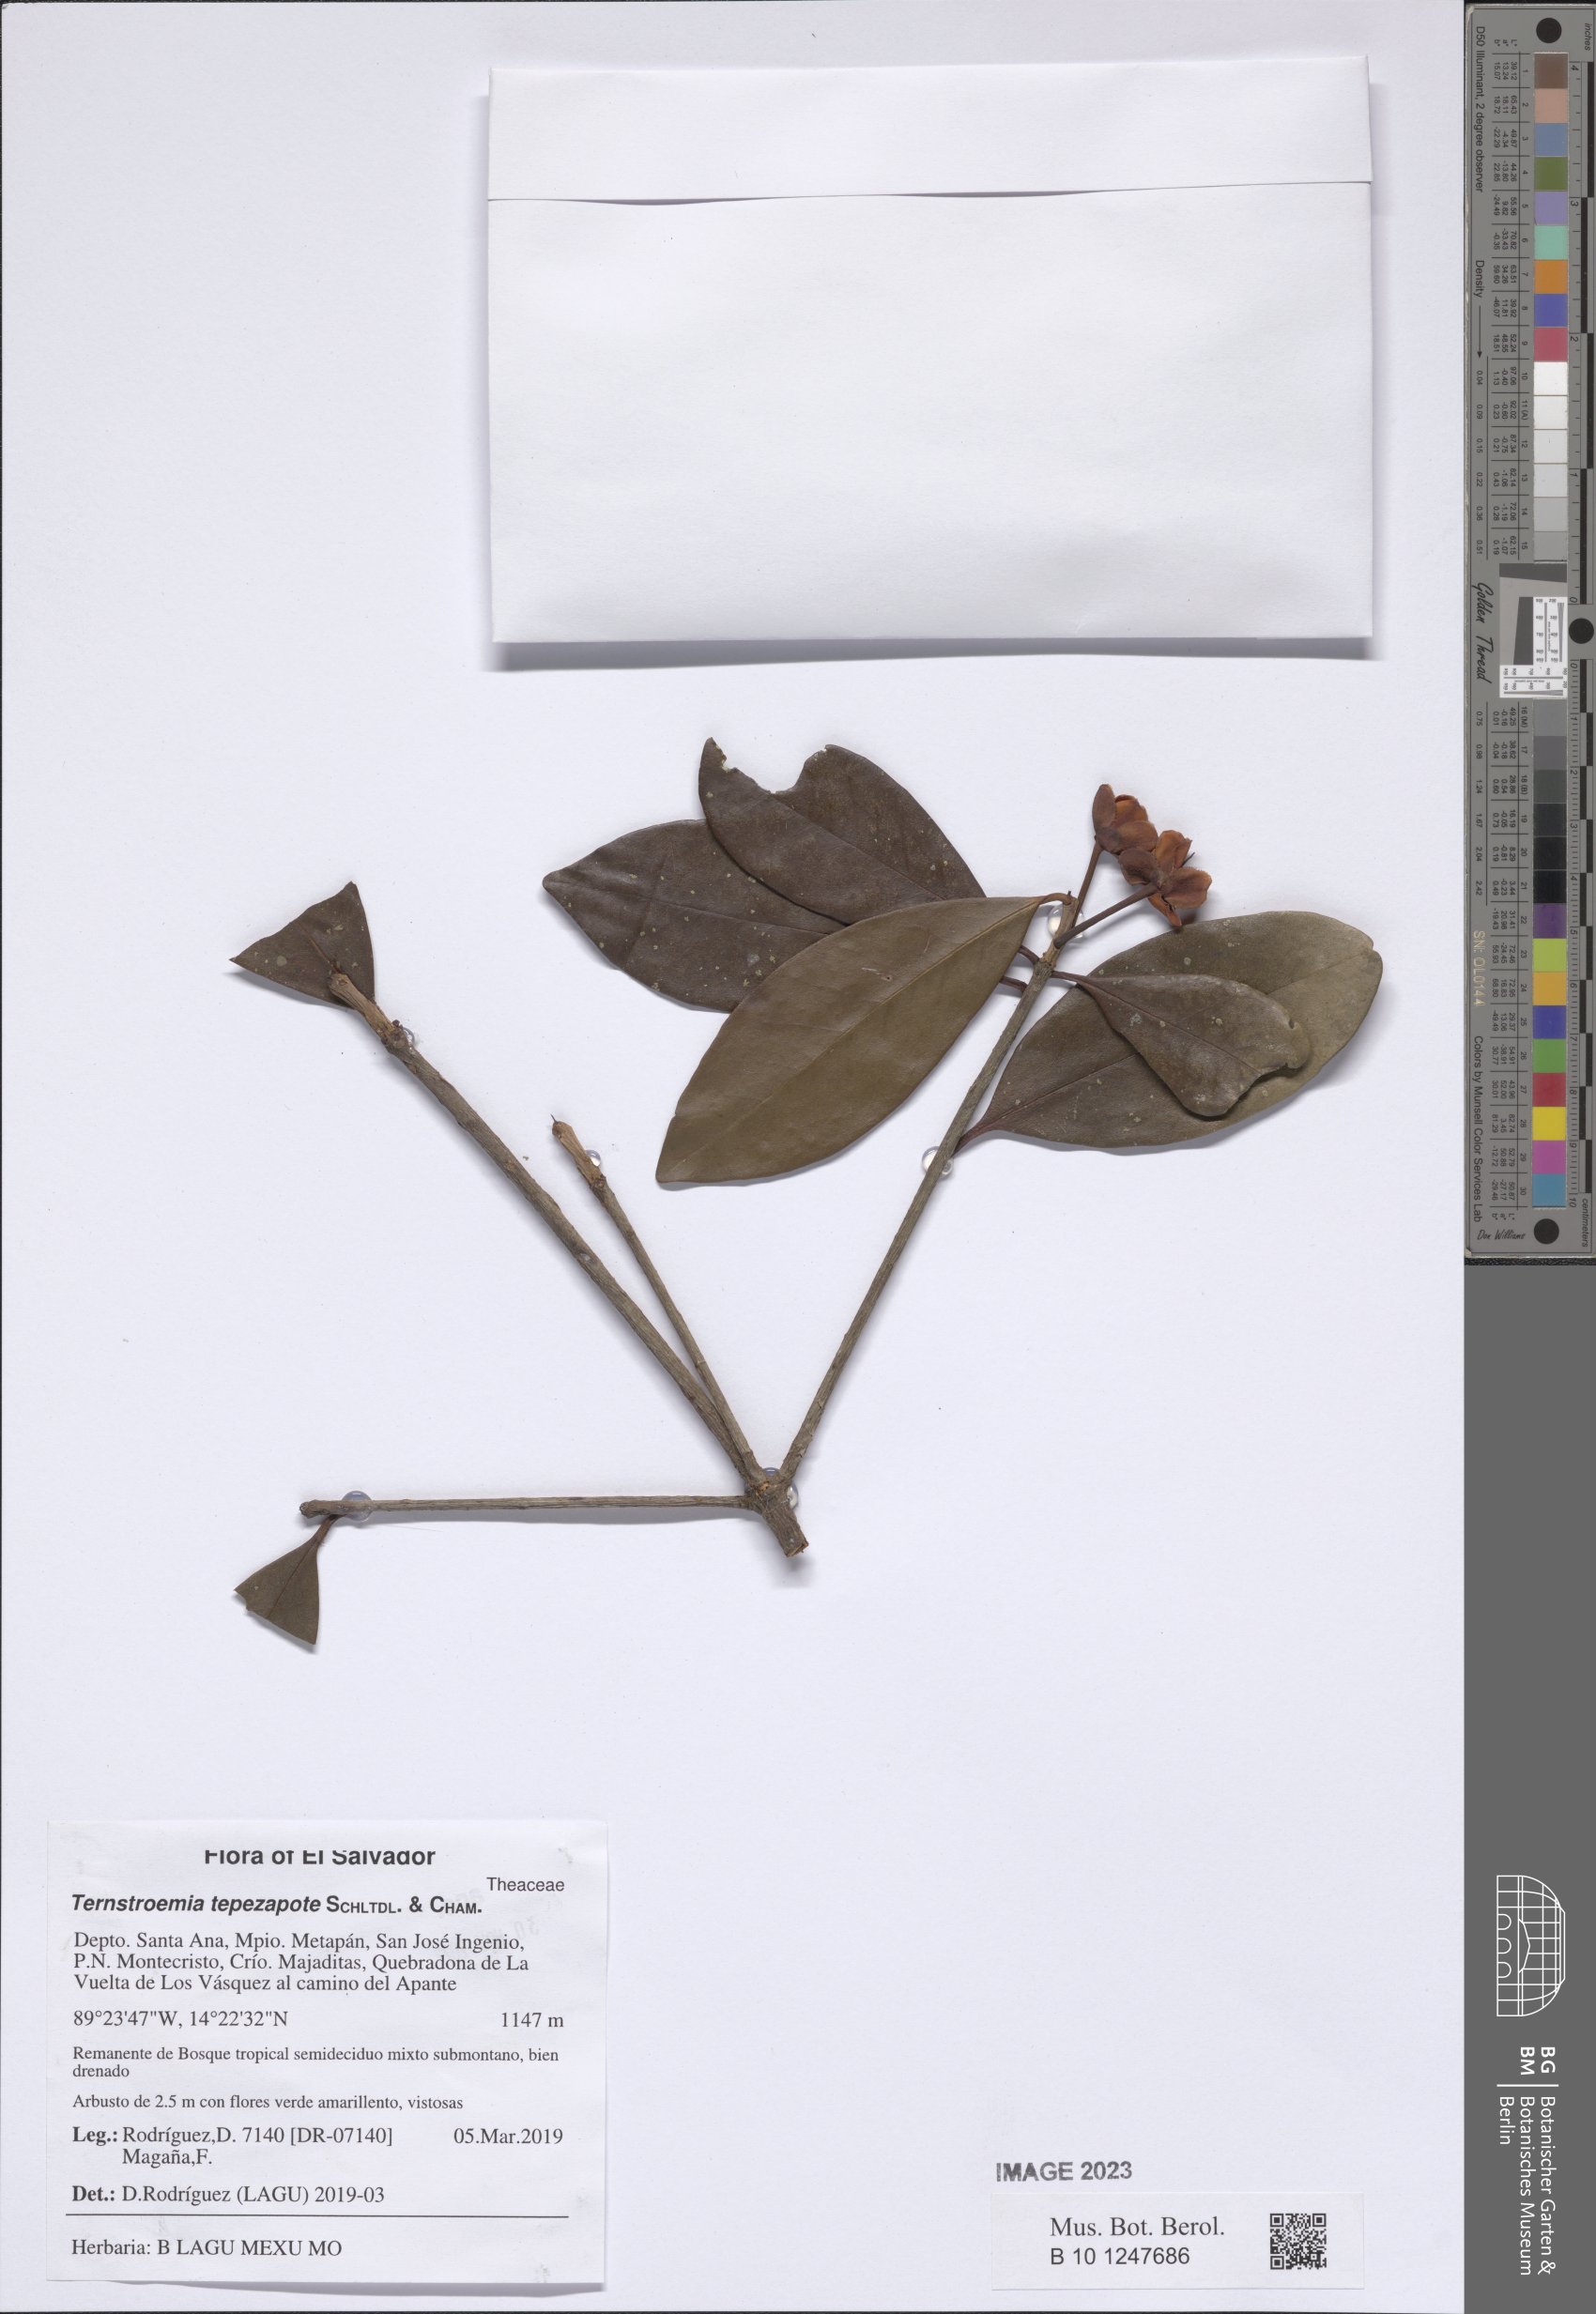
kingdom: Plantae
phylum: Tracheophyta
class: Magnoliopsida
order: Ericales
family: Pentaphylacaceae
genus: Ternstroemia
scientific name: Ternstroemia tepezapote
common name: Copey vera
